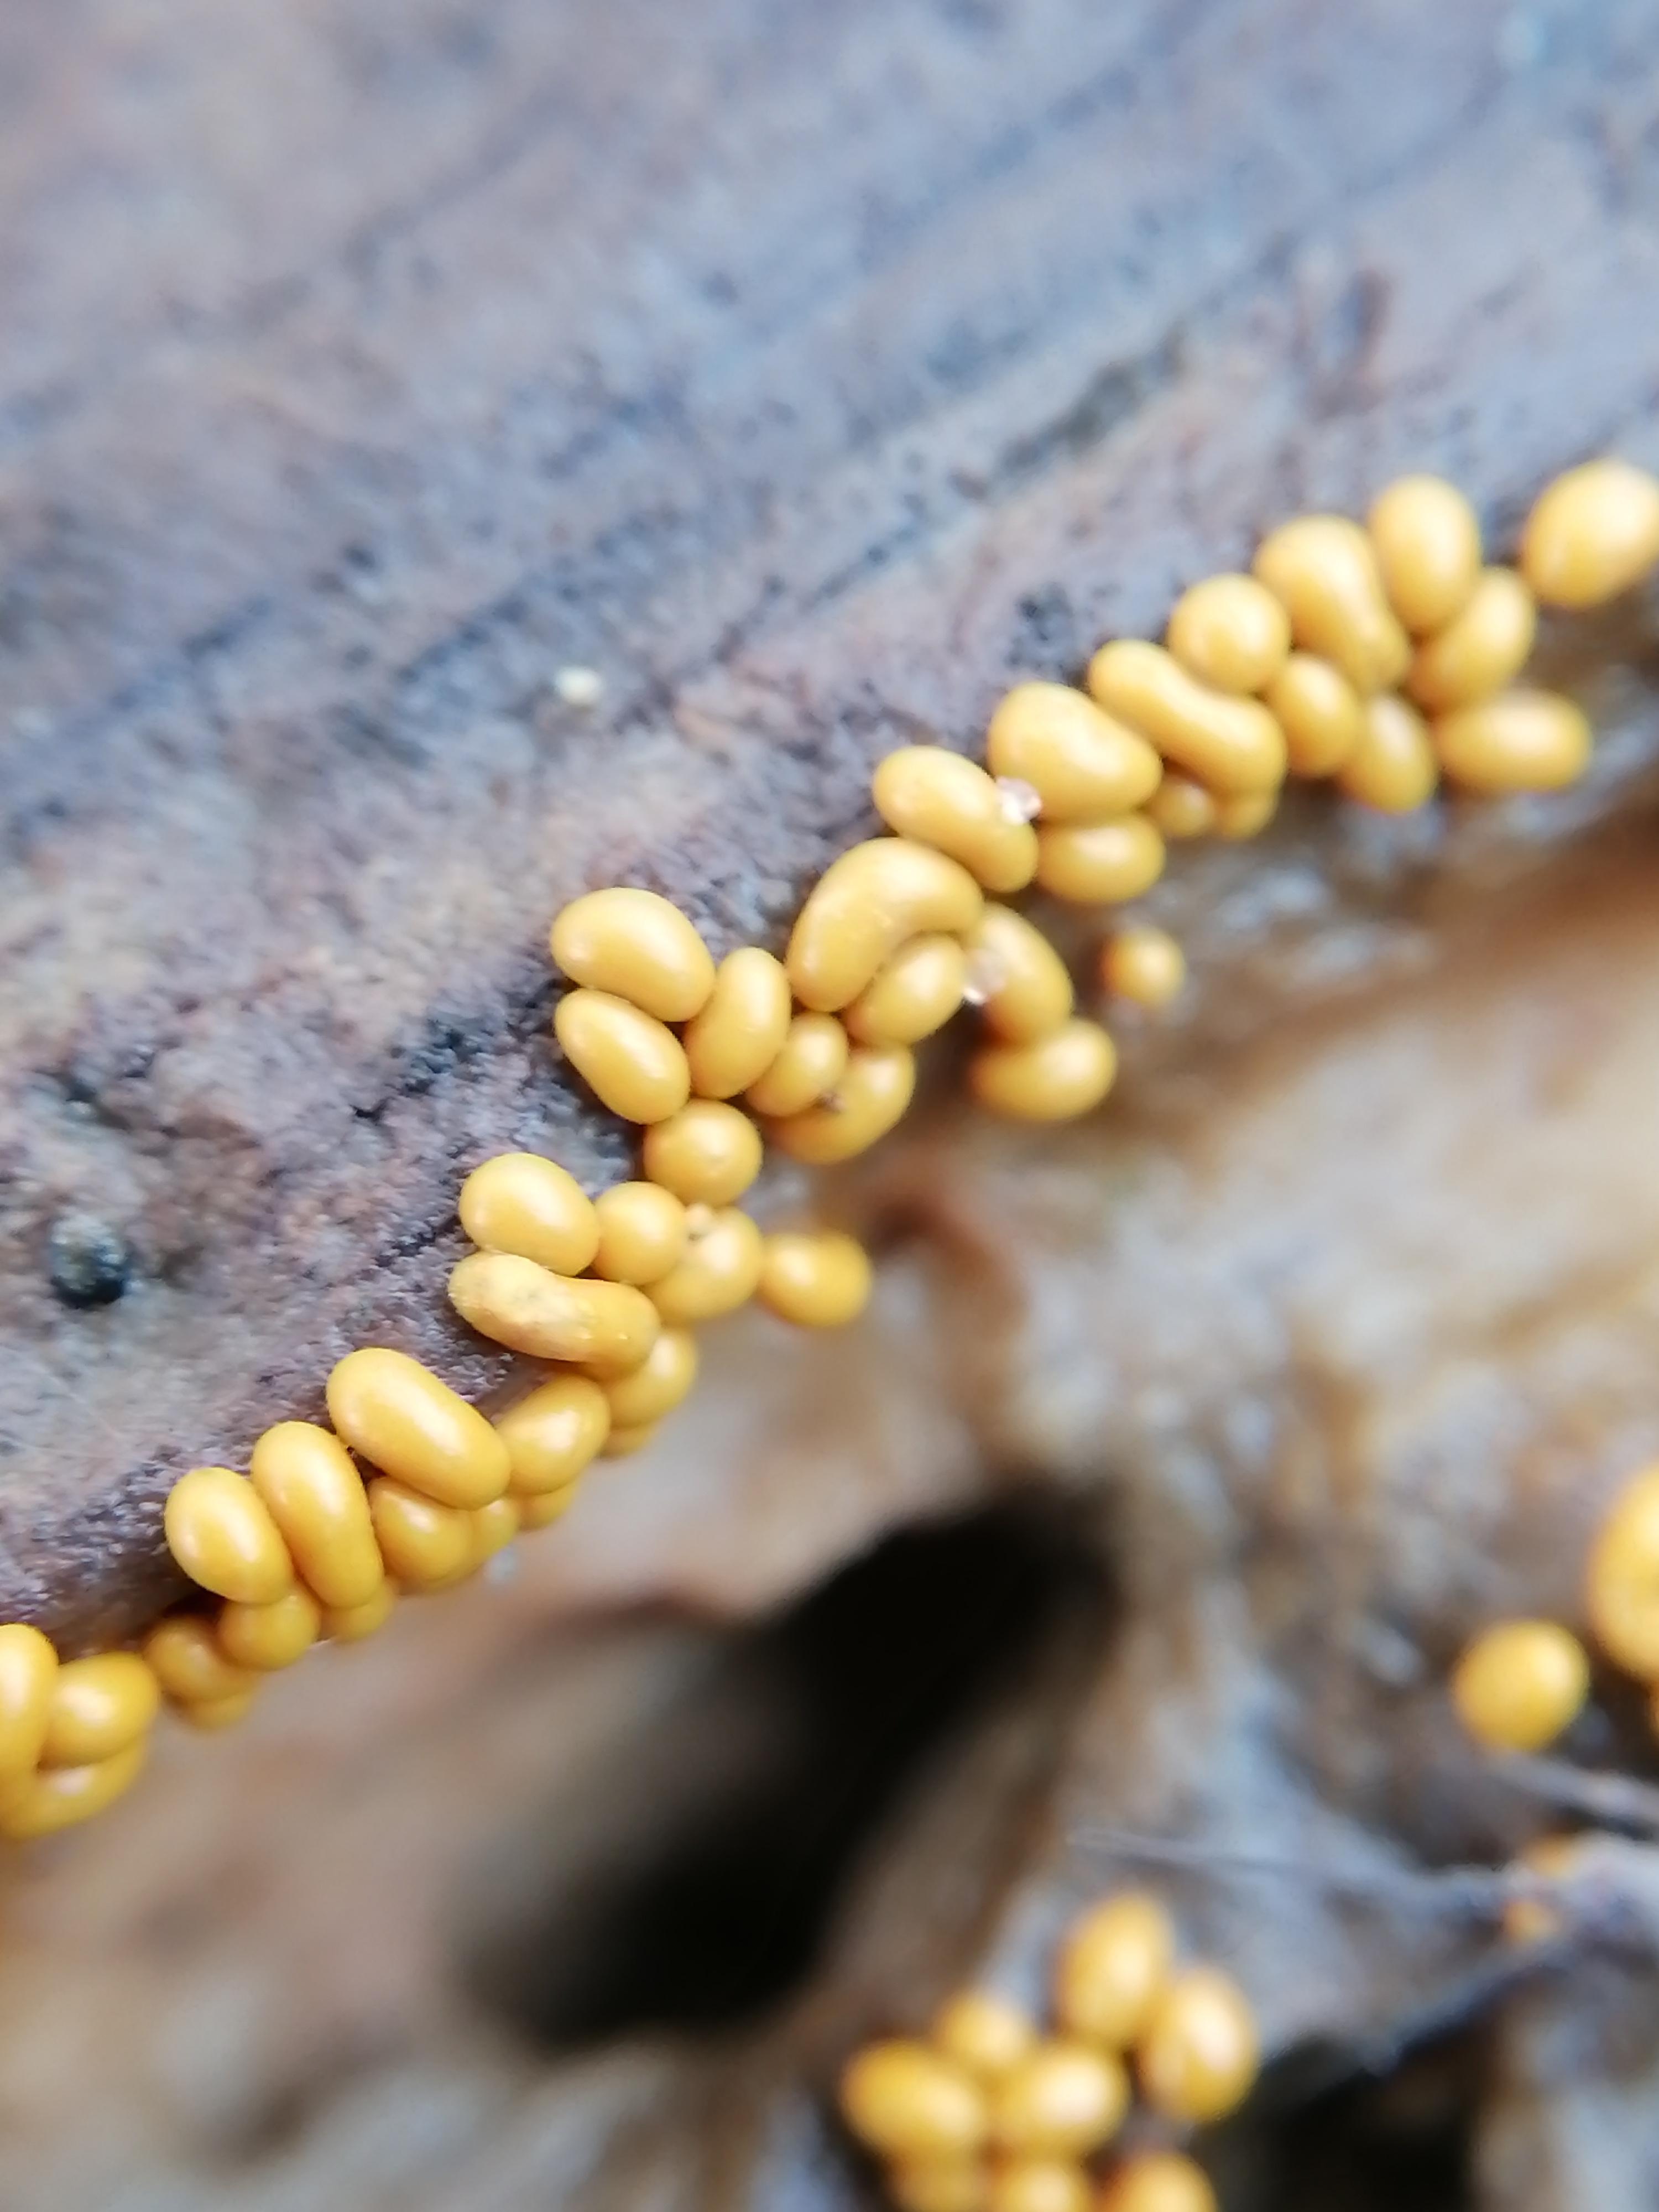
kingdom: Protozoa
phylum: Mycetozoa
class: Myxomycetes
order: Trichiales
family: Trichiaceae
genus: Trichia
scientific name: Trichia varia
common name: foranderlig hårbold
